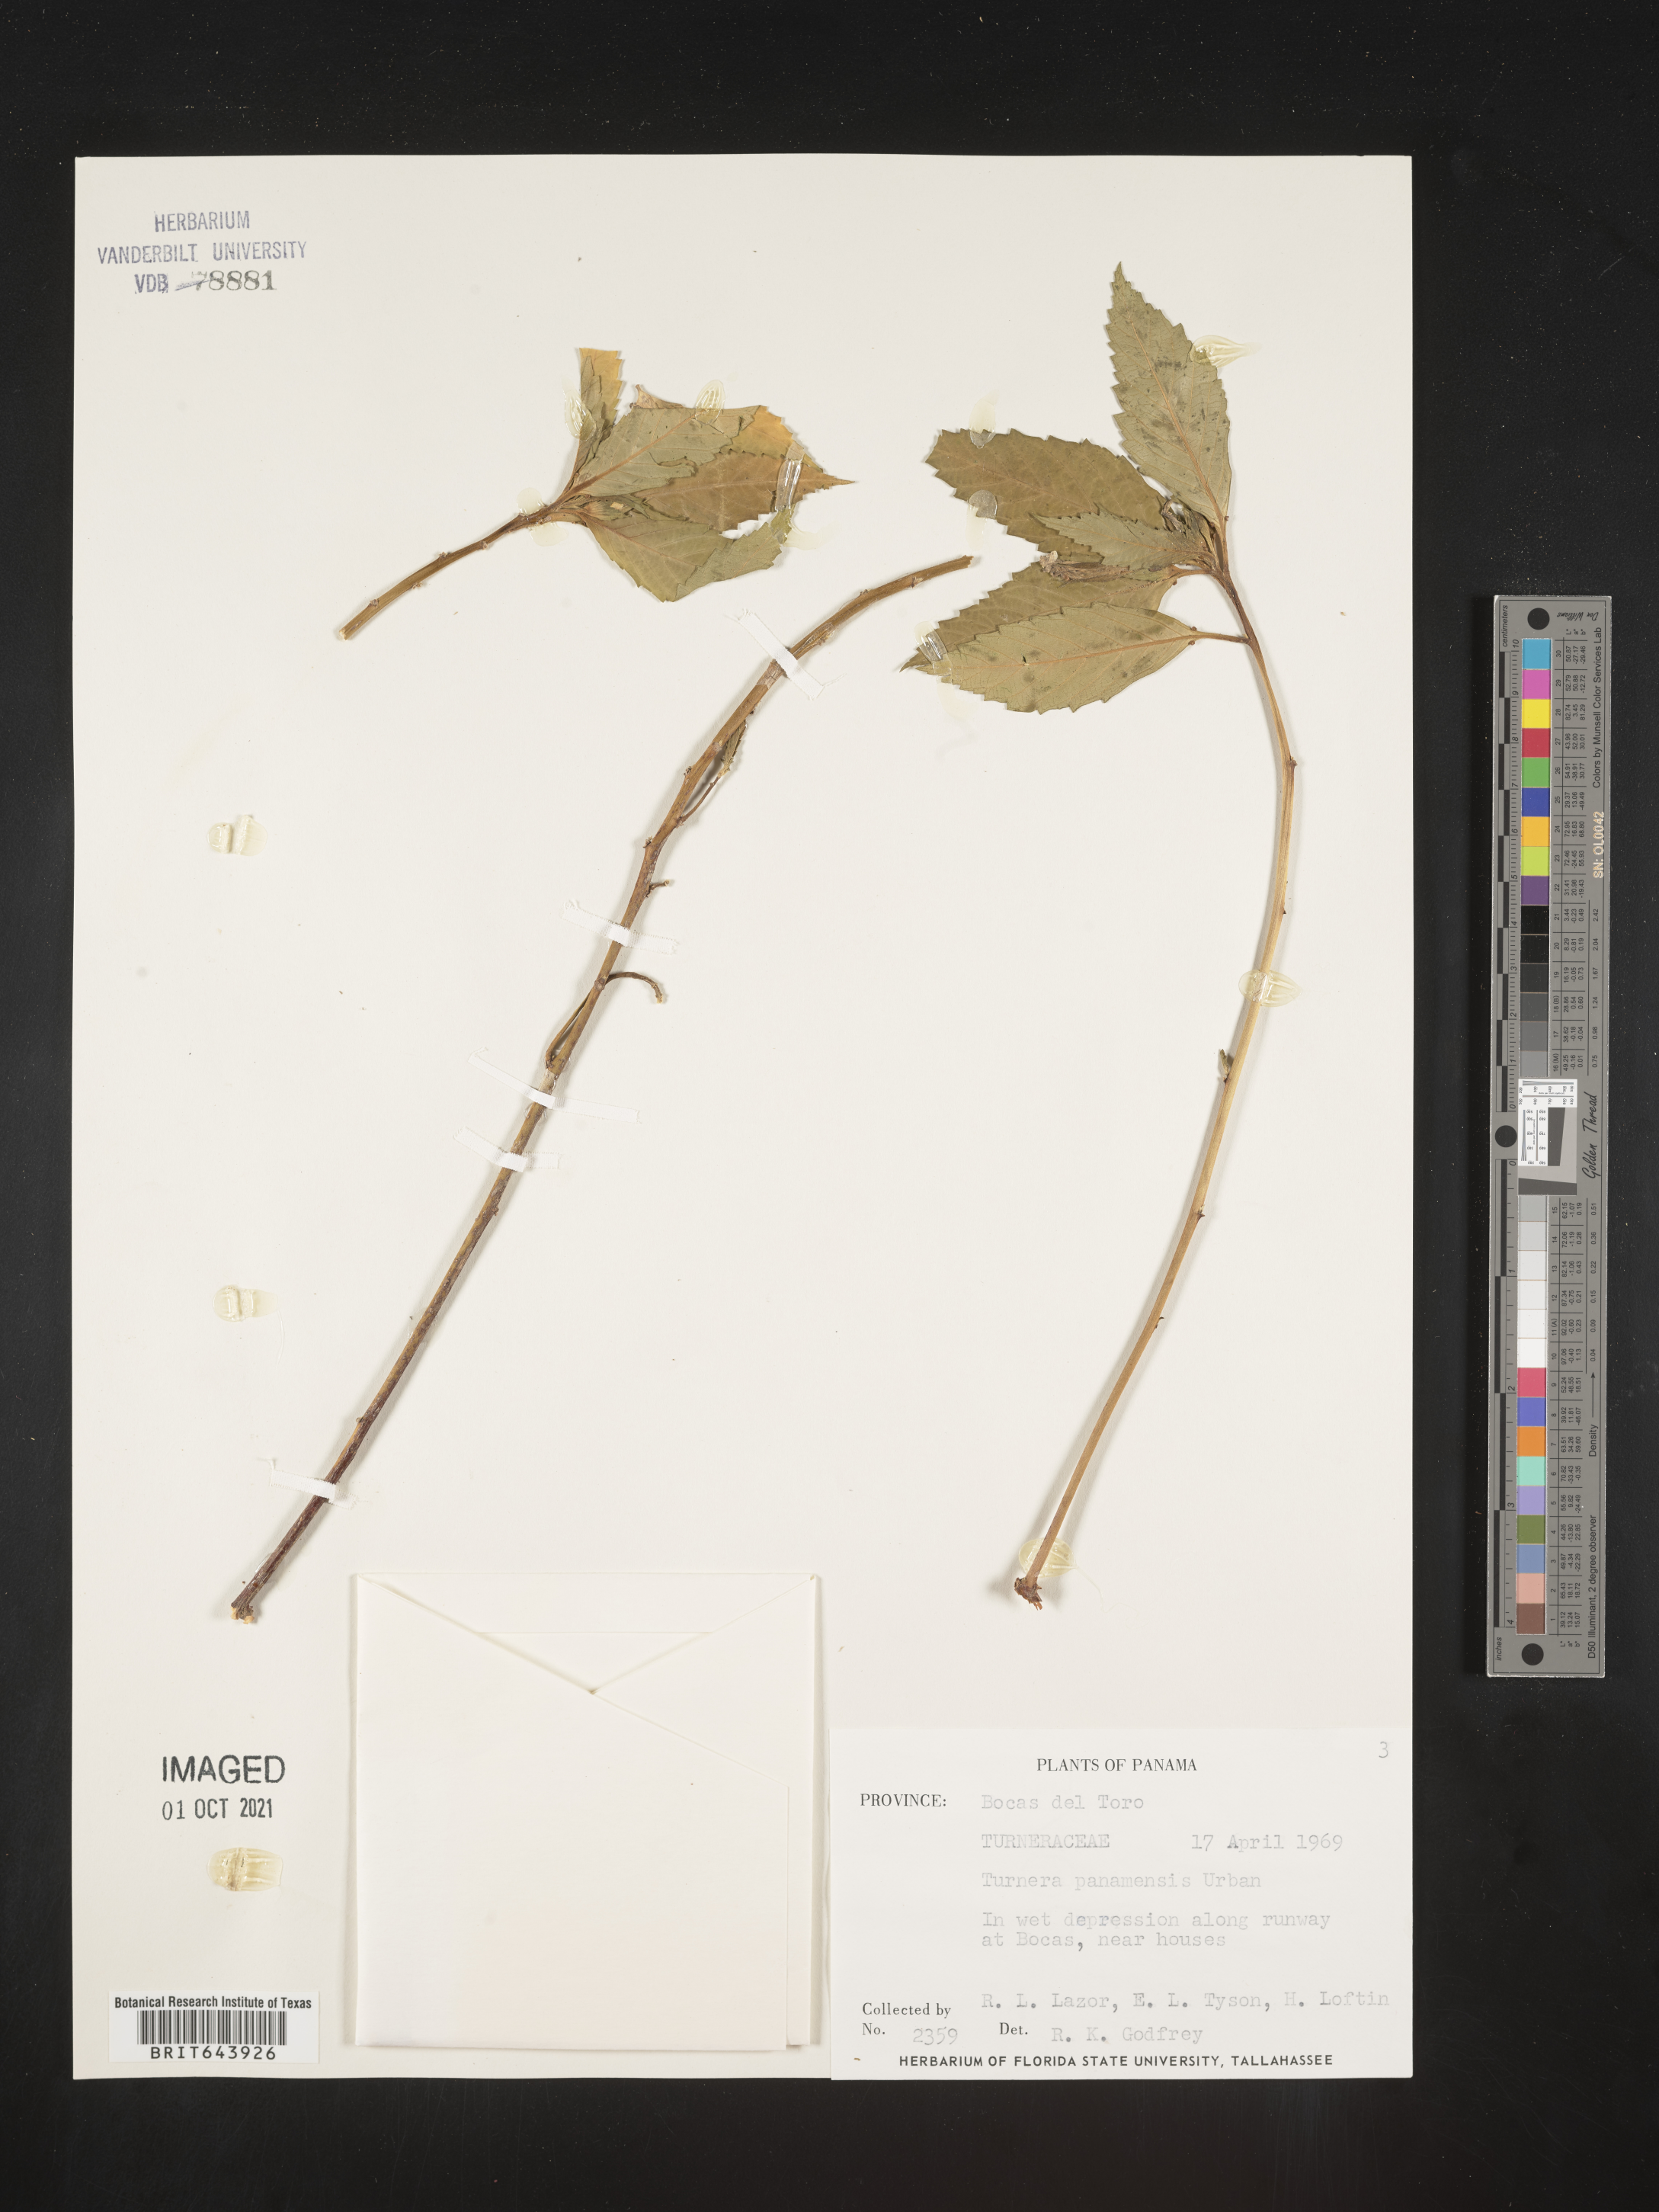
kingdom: Plantae
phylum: Tracheophyta
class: Magnoliopsida
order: Malpighiales
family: Turneraceae
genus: Turnera
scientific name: Turnera
